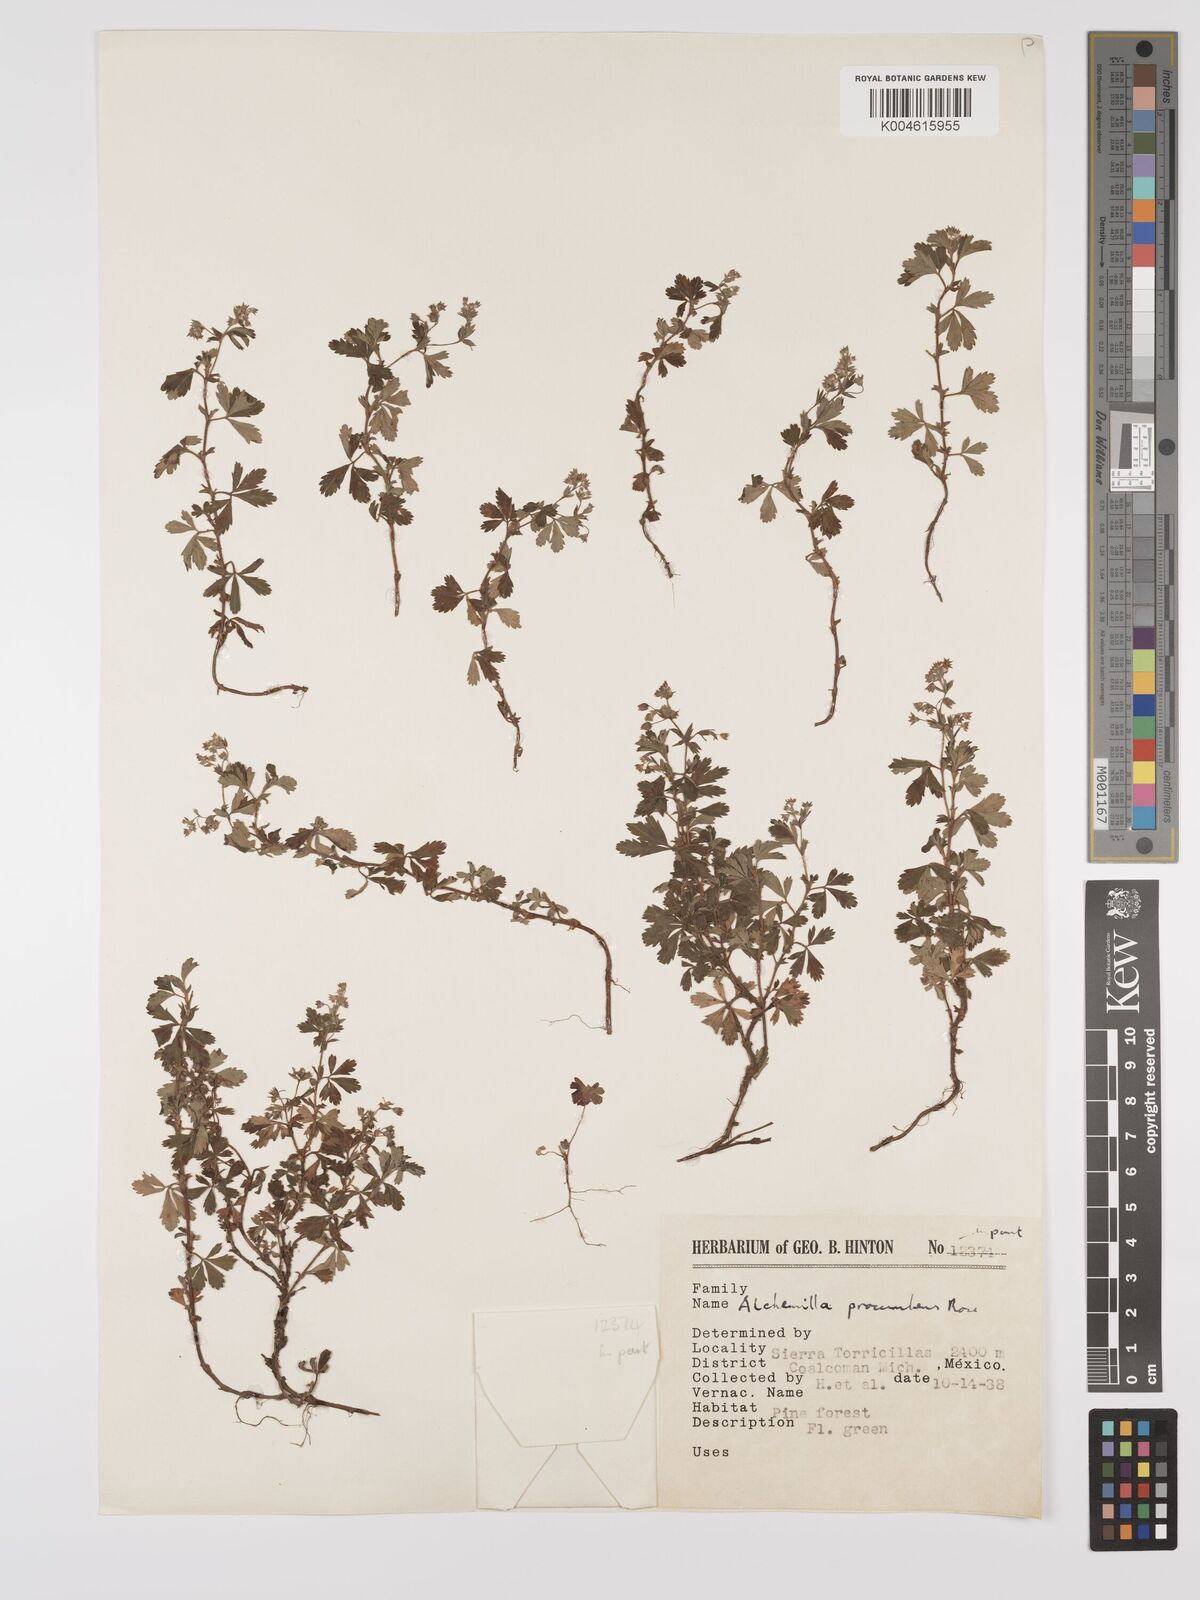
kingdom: Plantae
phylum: Tracheophyta
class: Magnoliopsida
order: Rosales
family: Rosaceae
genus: Lachemilla
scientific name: Lachemilla procumbens
